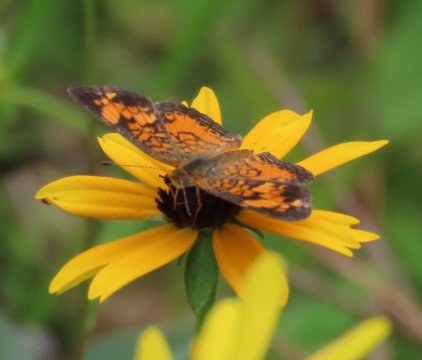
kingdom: Animalia
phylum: Arthropoda
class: Insecta
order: Lepidoptera
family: Nymphalidae
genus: Phyciodes
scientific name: Phyciodes tharos
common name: Pearl Crescent
